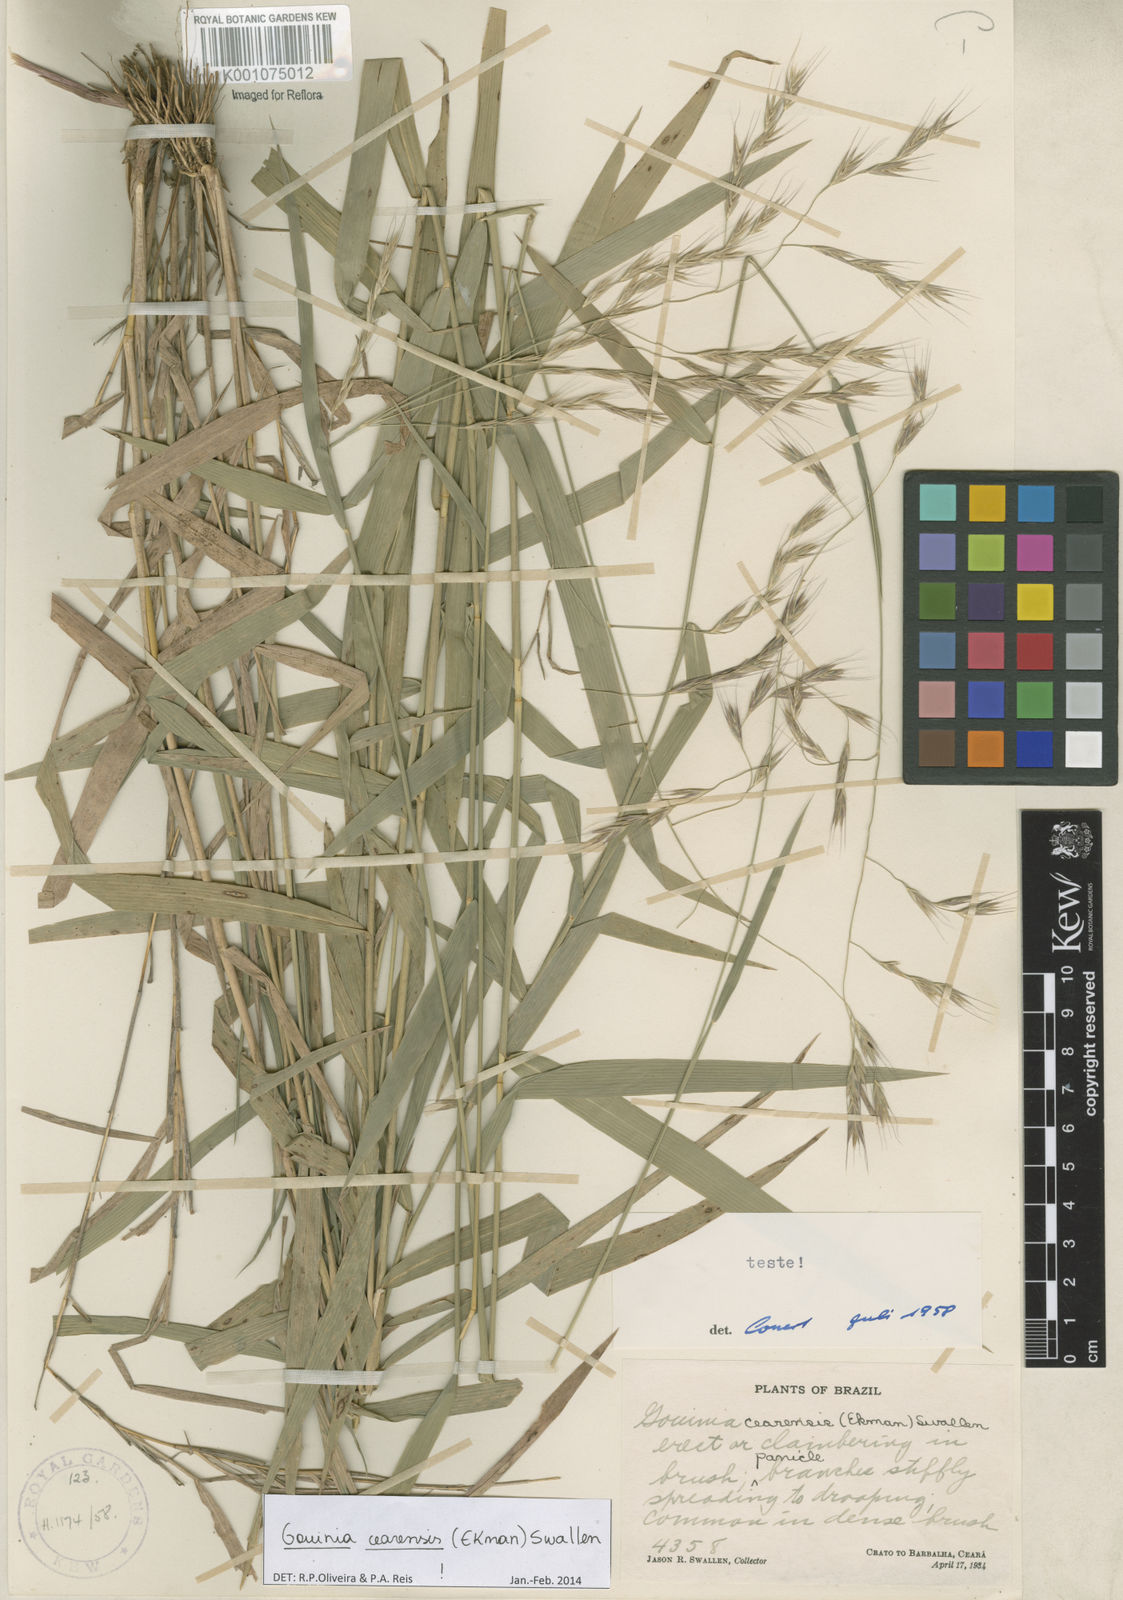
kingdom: Plantae
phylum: Tracheophyta
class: Liliopsida
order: Poales
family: Poaceae
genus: Gouinia
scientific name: Gouinia cearensis
